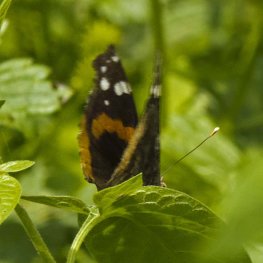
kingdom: Animalia
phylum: Arthropoda
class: Insecta
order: Lepidoptera
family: Nymphalidae
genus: Vanessa
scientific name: Vanessa atalanta
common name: Red Admiral
